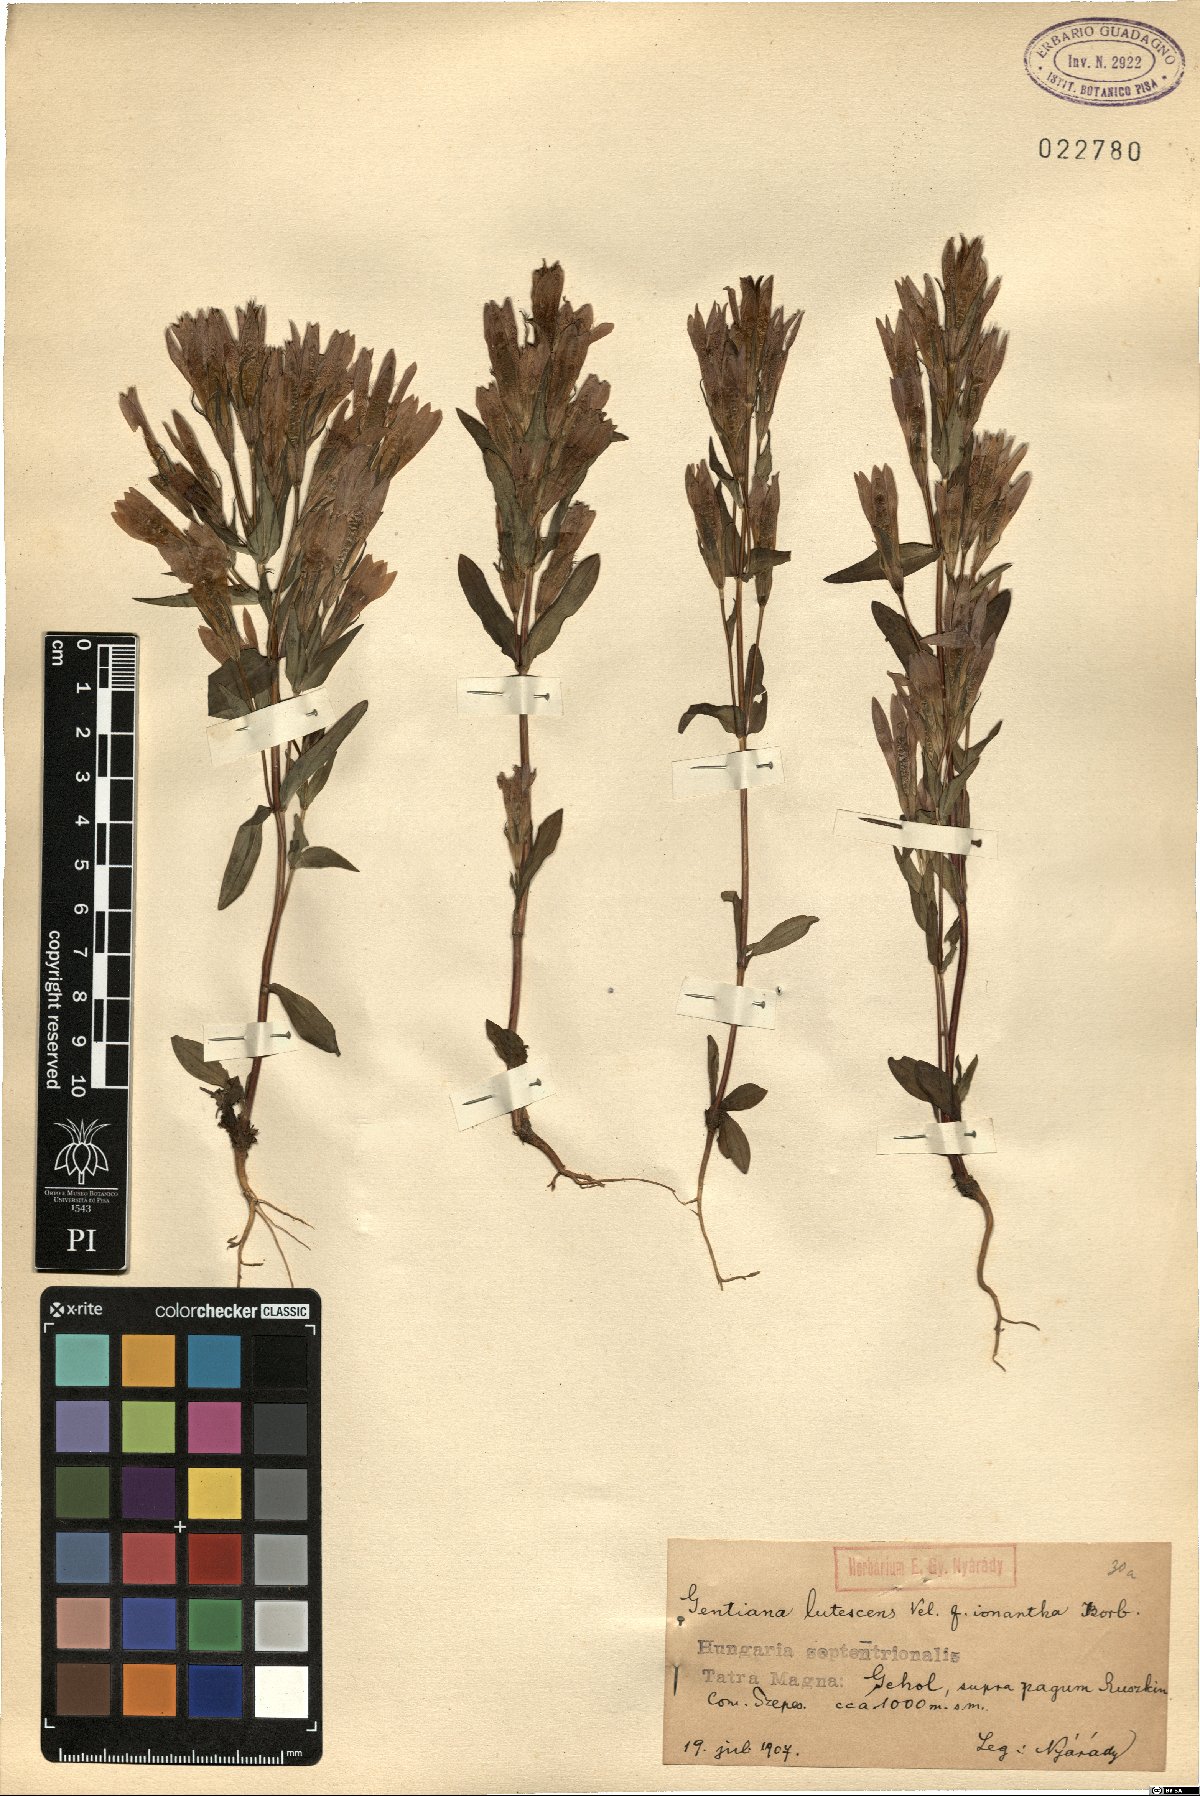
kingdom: Plantae
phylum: Tracheophyta
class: Magnoliopsida
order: Gentianales
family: Gentianaceae
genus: Gentianella
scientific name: Gentianella austriaca
